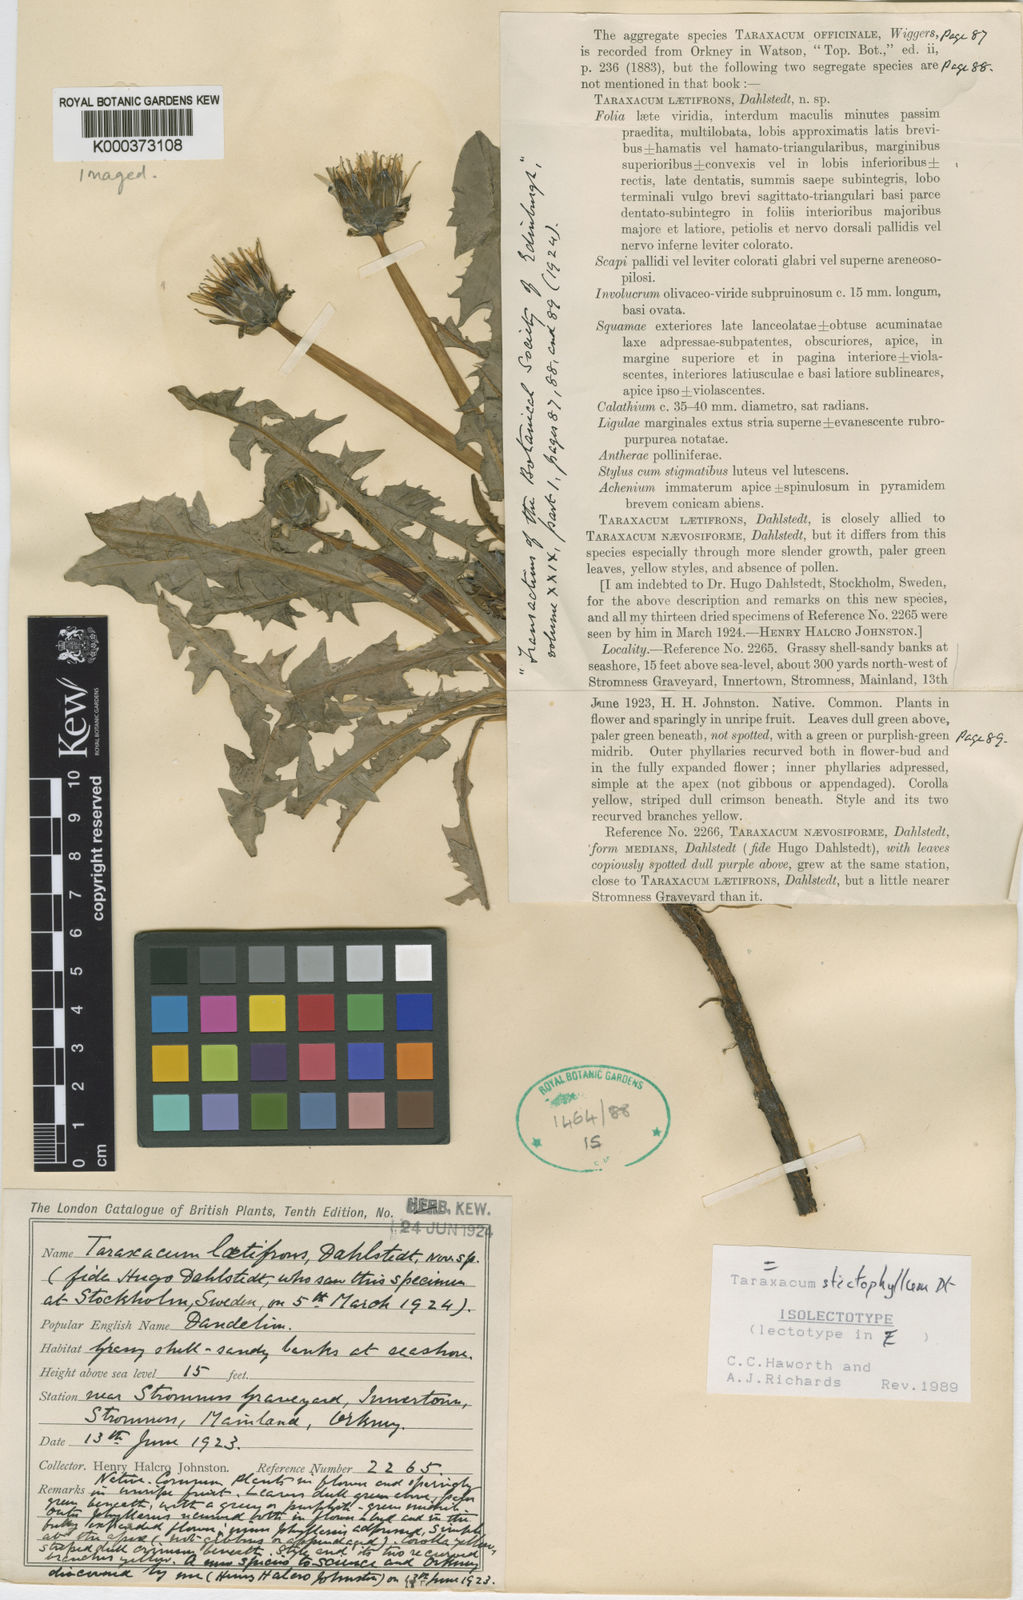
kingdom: Plantae
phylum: Tracheophyta
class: Magnoliopsida
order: Asterales
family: Asteraceae
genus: Taraxacum
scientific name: Taraxacum stictophyllum
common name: Stiff-leaved dandelion
